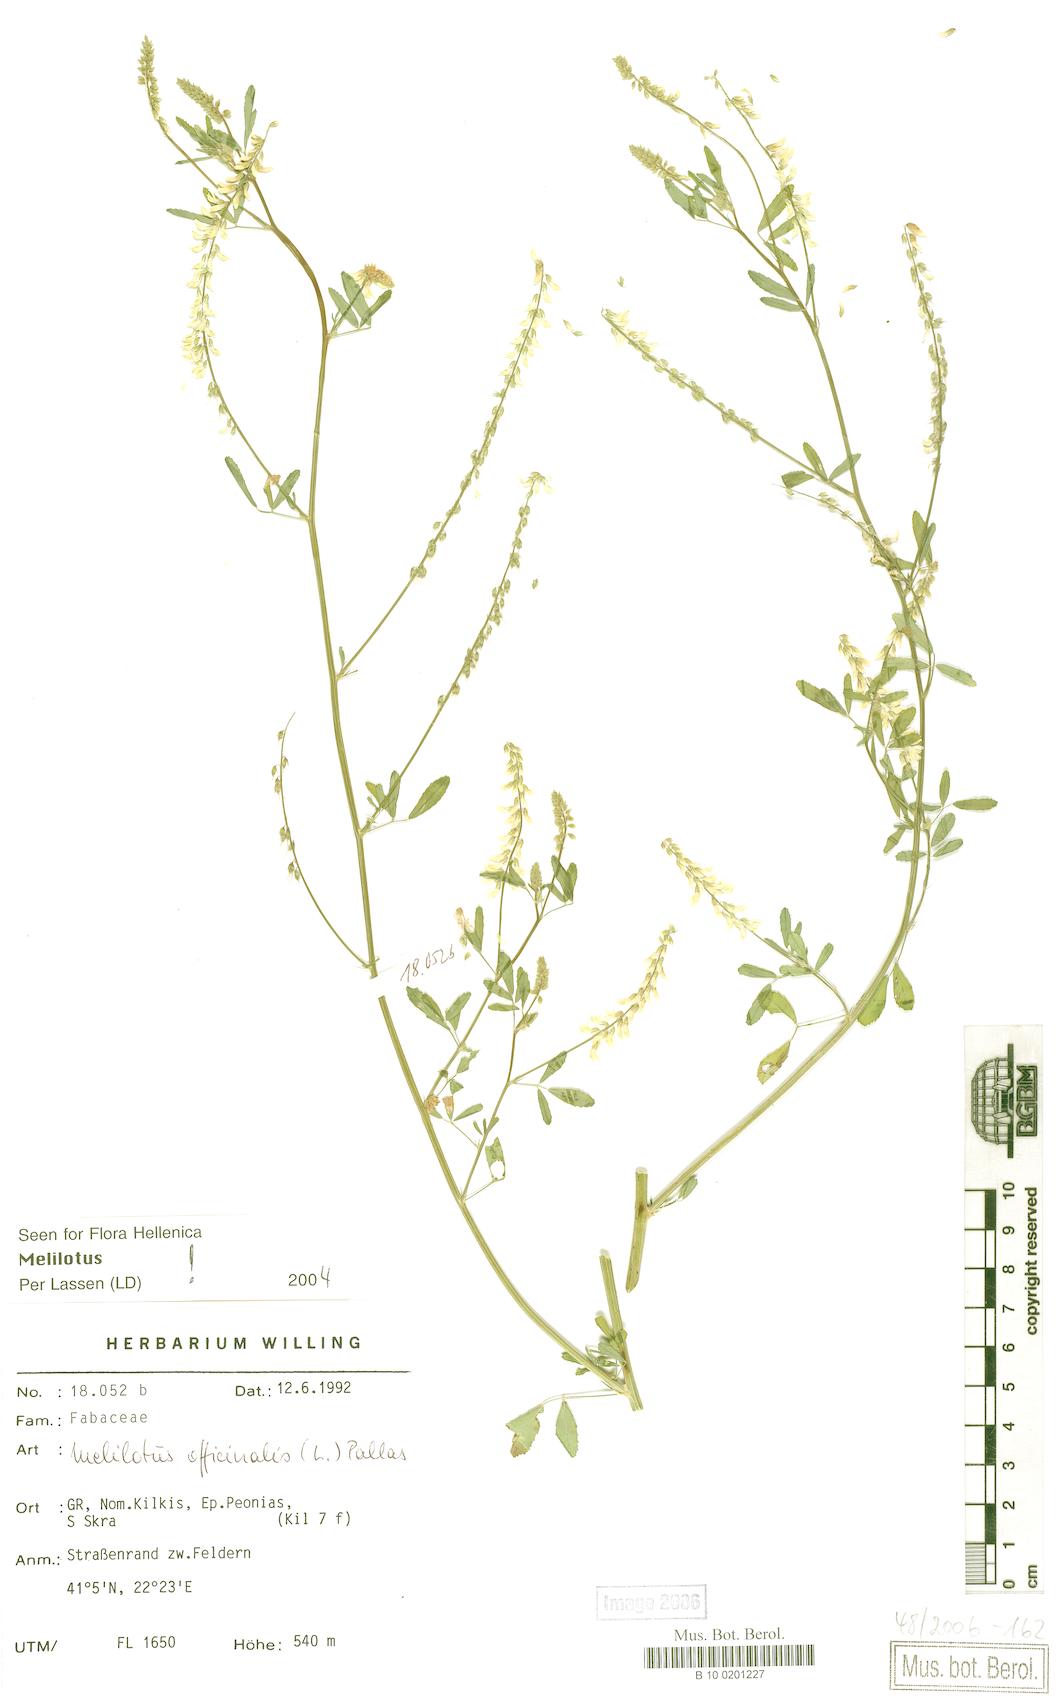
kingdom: Plantae
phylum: Tracheophyta
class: Magnoliopsida
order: Fabales
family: Fabaceae
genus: Melilotus
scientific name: Melilotus officinalis
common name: Sweetclover
